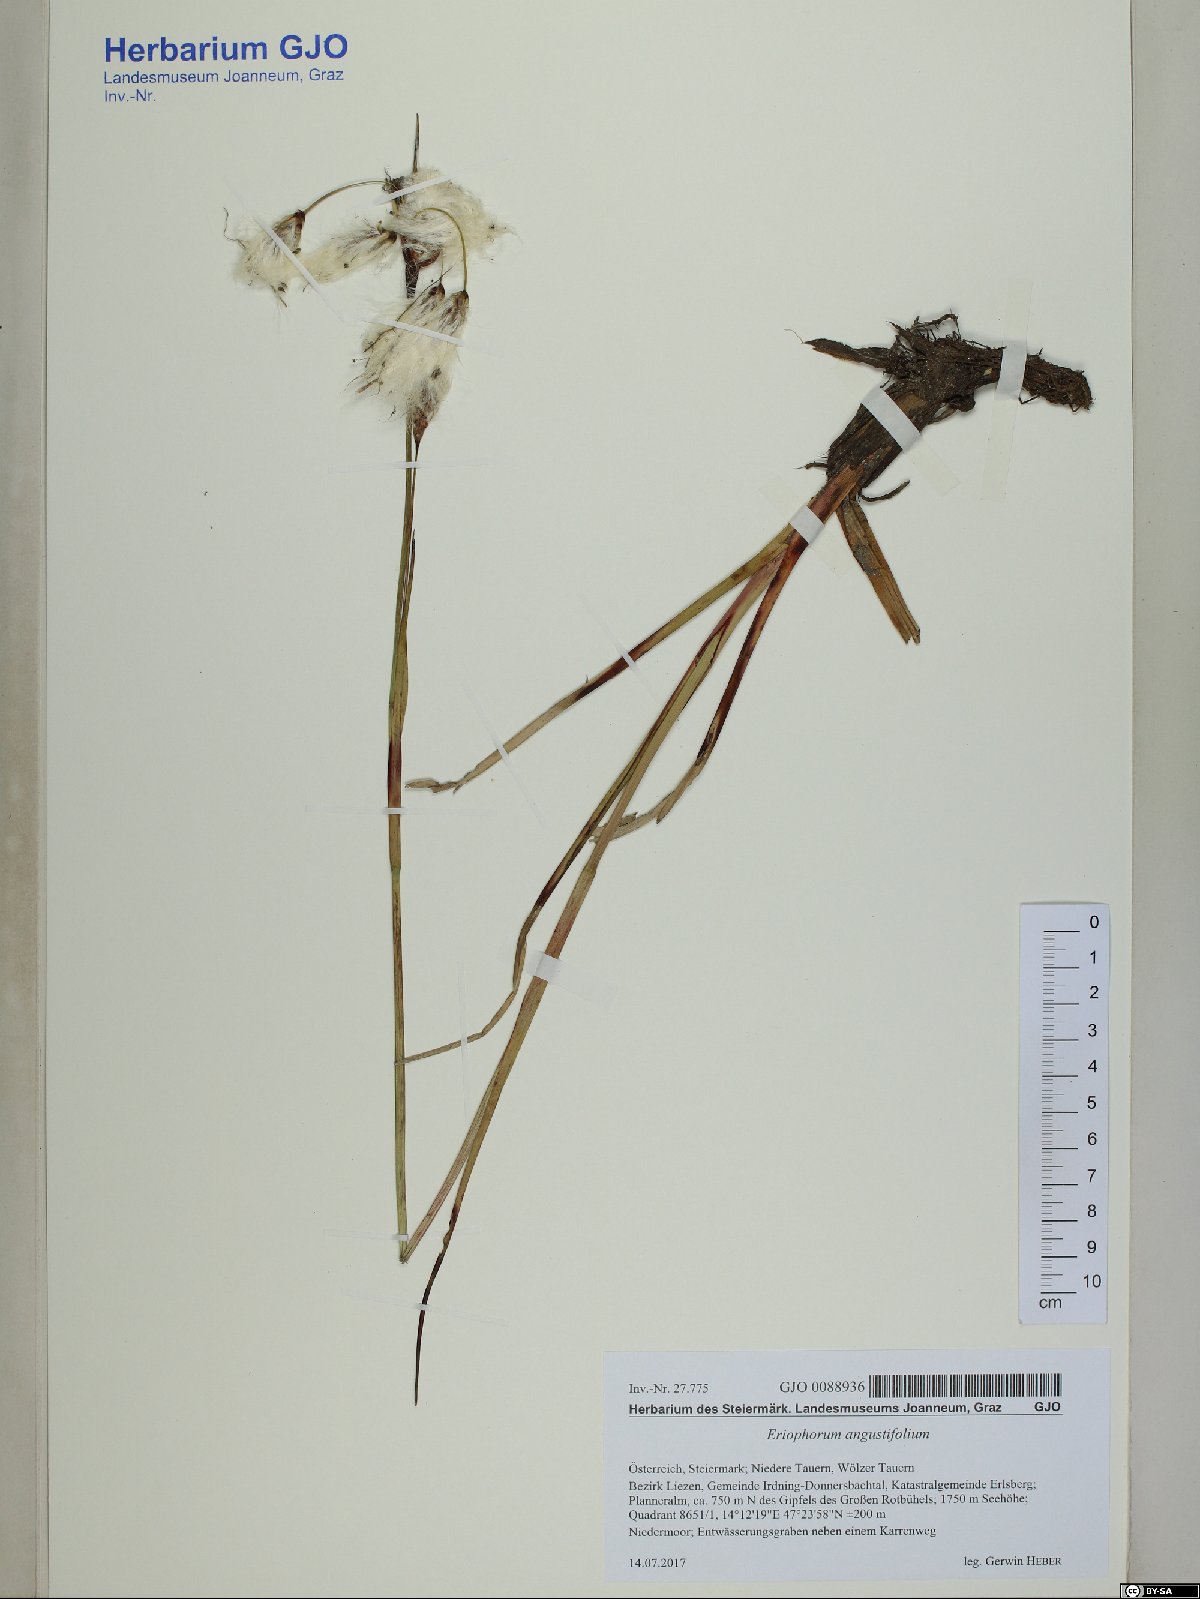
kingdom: Plantae
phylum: Tracheophyta
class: Liliopsida
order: Poales
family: Cyperaceae
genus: Eriophorum
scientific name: Eriophorum angustifolium
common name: Common cottongrass
